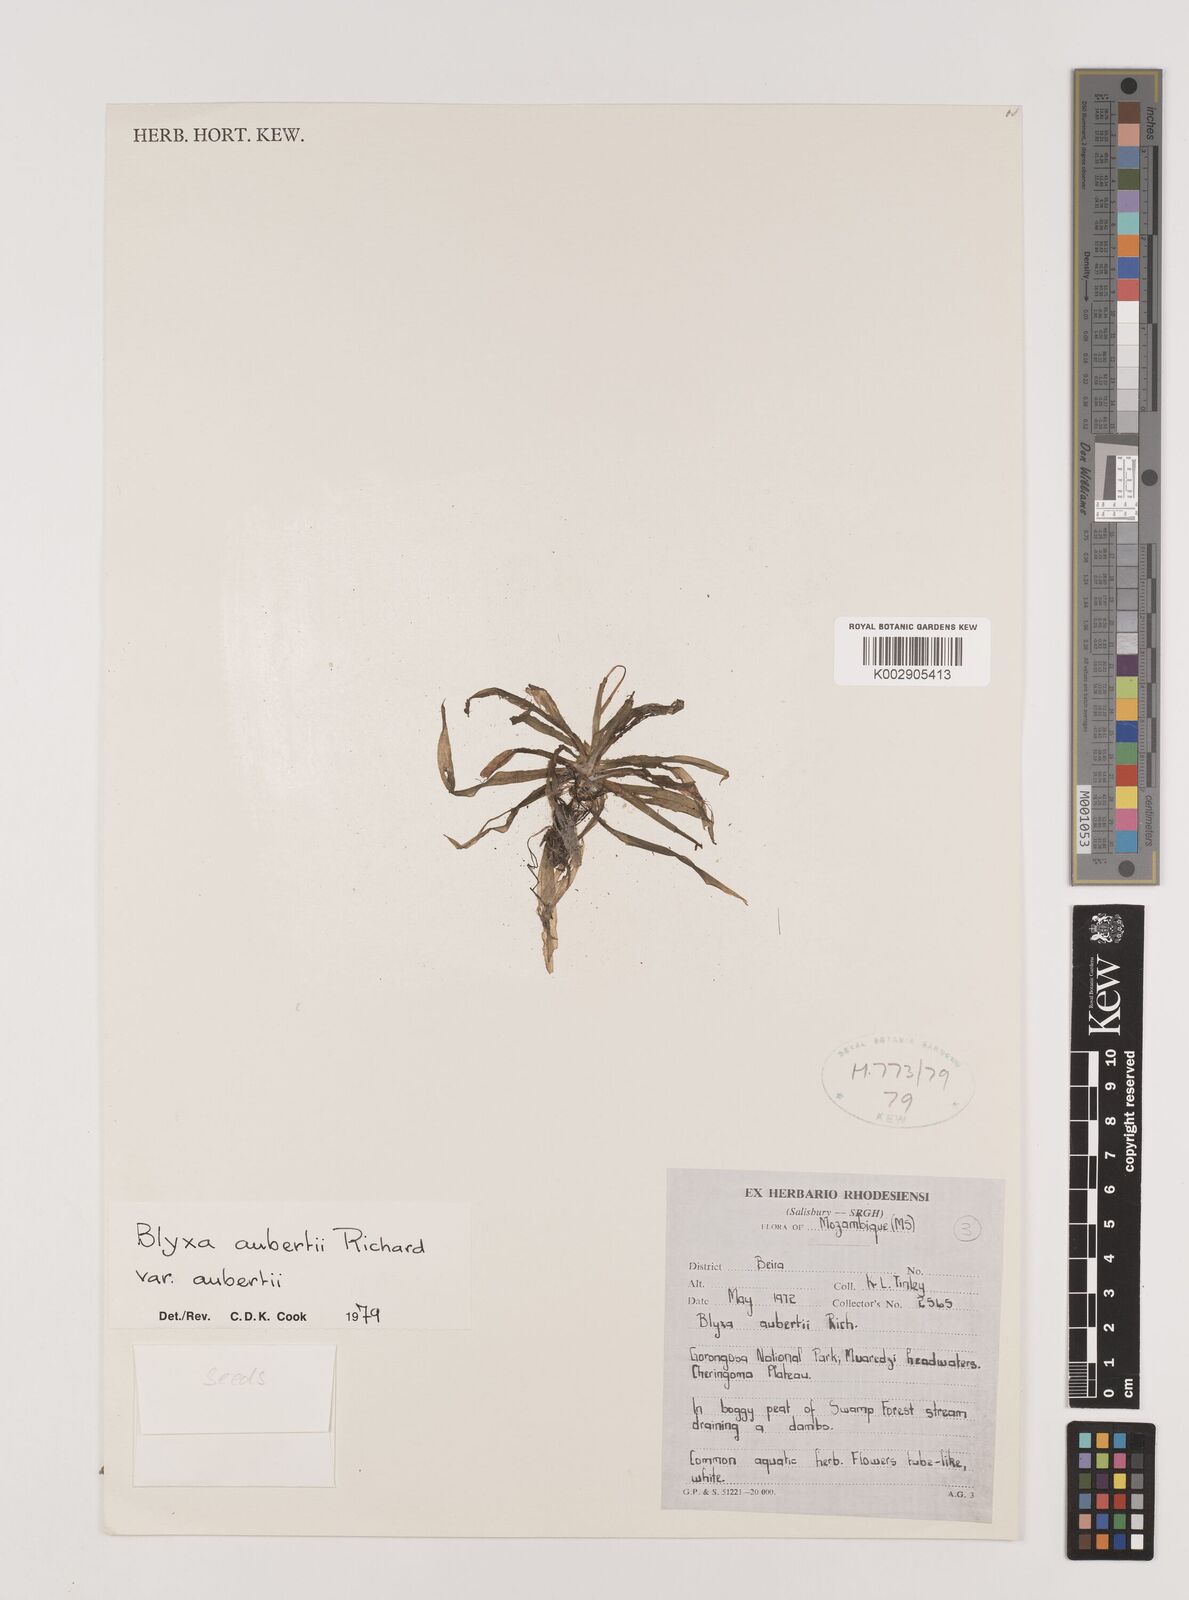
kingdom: Plantae
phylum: Tracheophyta
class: Liliopsida
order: Alismatales
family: Hydrocharitaceae
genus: Blyxa
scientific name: Blyxa aubertii
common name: Roundfruit blyxa
